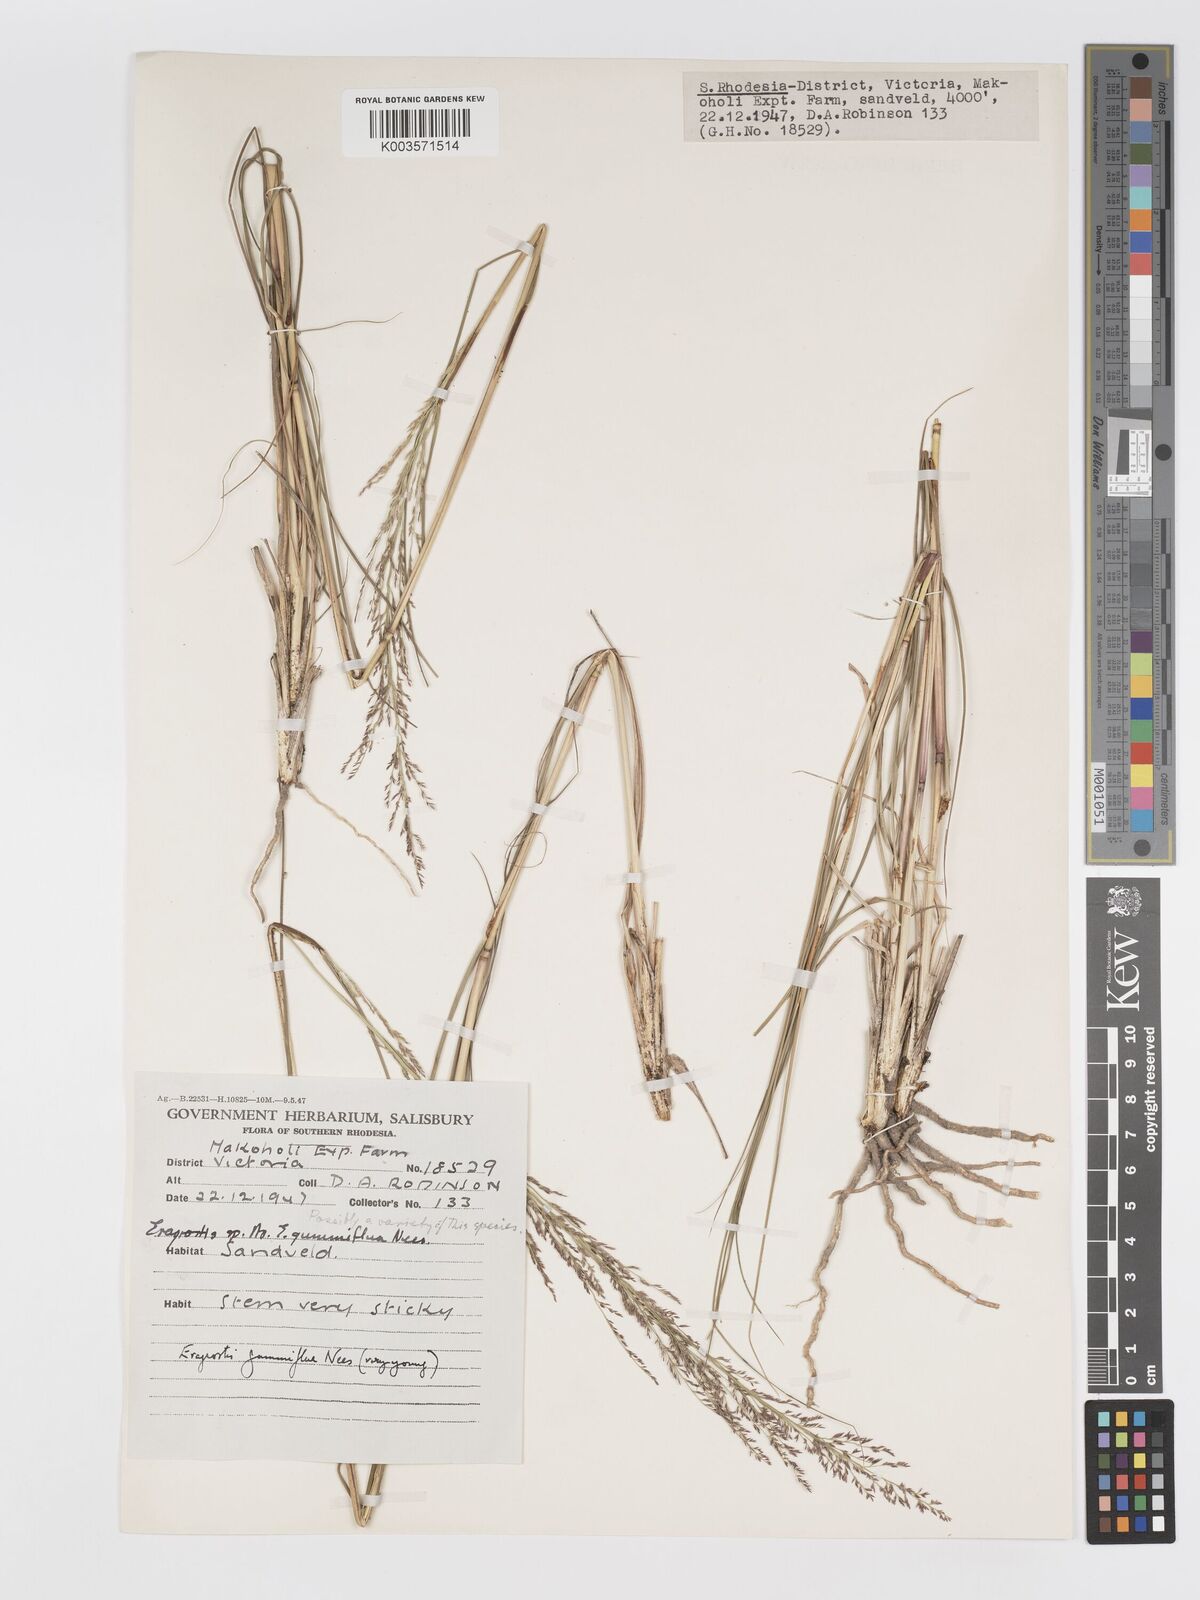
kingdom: Plantae
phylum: Tracheophyta
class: Liliopsida
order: Poales
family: Poaceae
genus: Eragrostis
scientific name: Eragrostis gummiflua
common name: Gum grass
